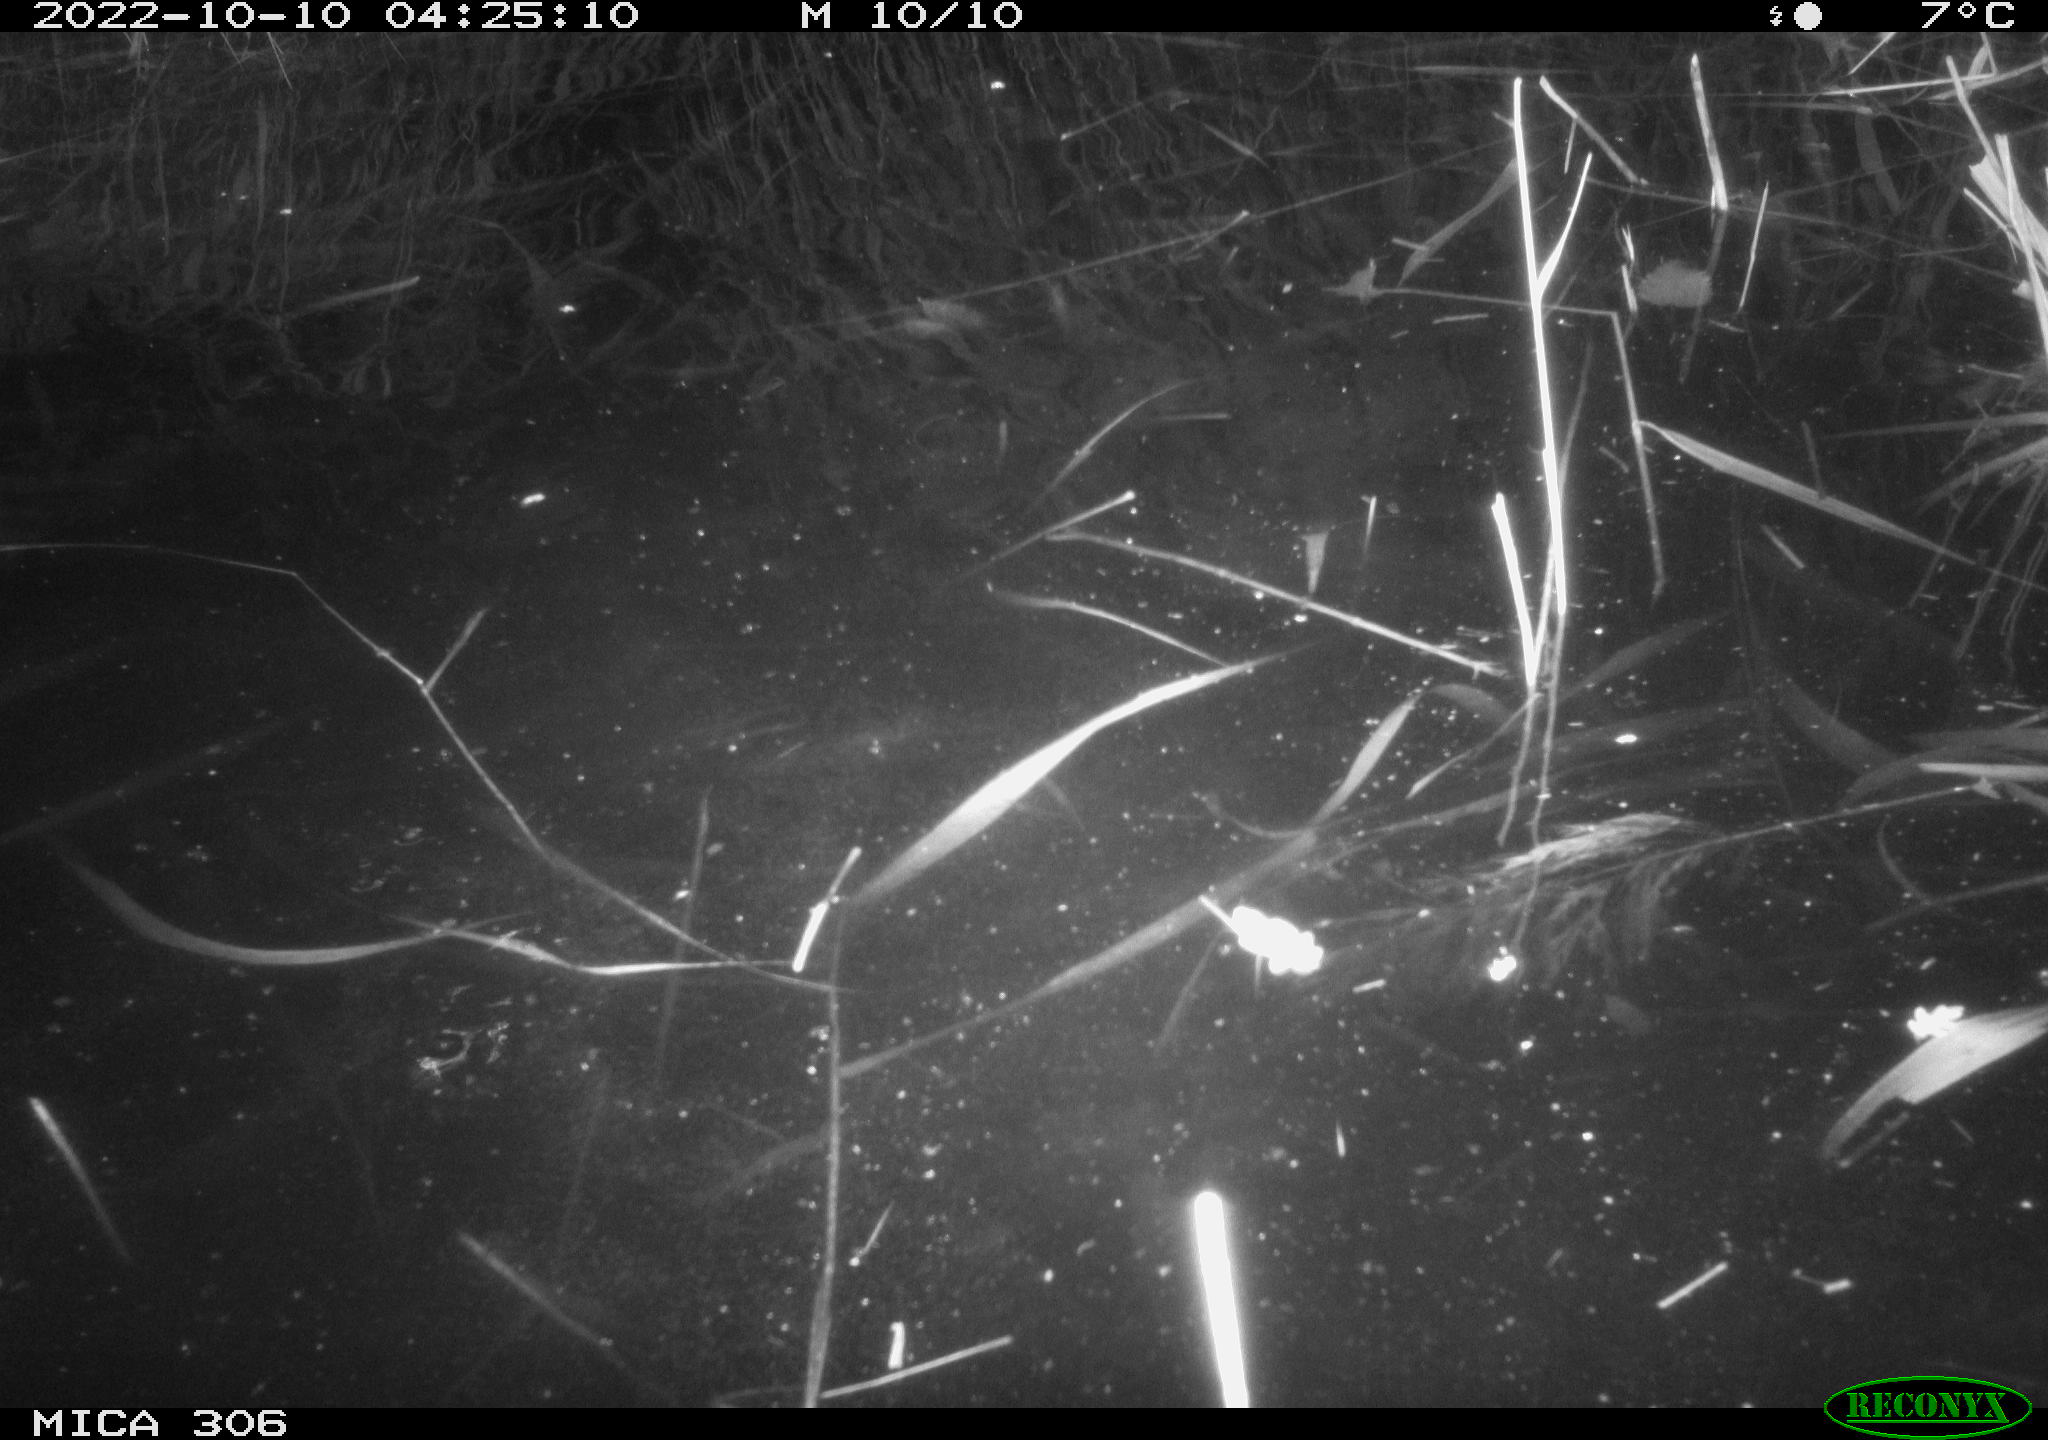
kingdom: Animalia
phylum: Chordata
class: Mammalia
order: Rodentia
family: Muridae
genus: Rattus
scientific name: Rattus norvegicus
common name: Brown rat
